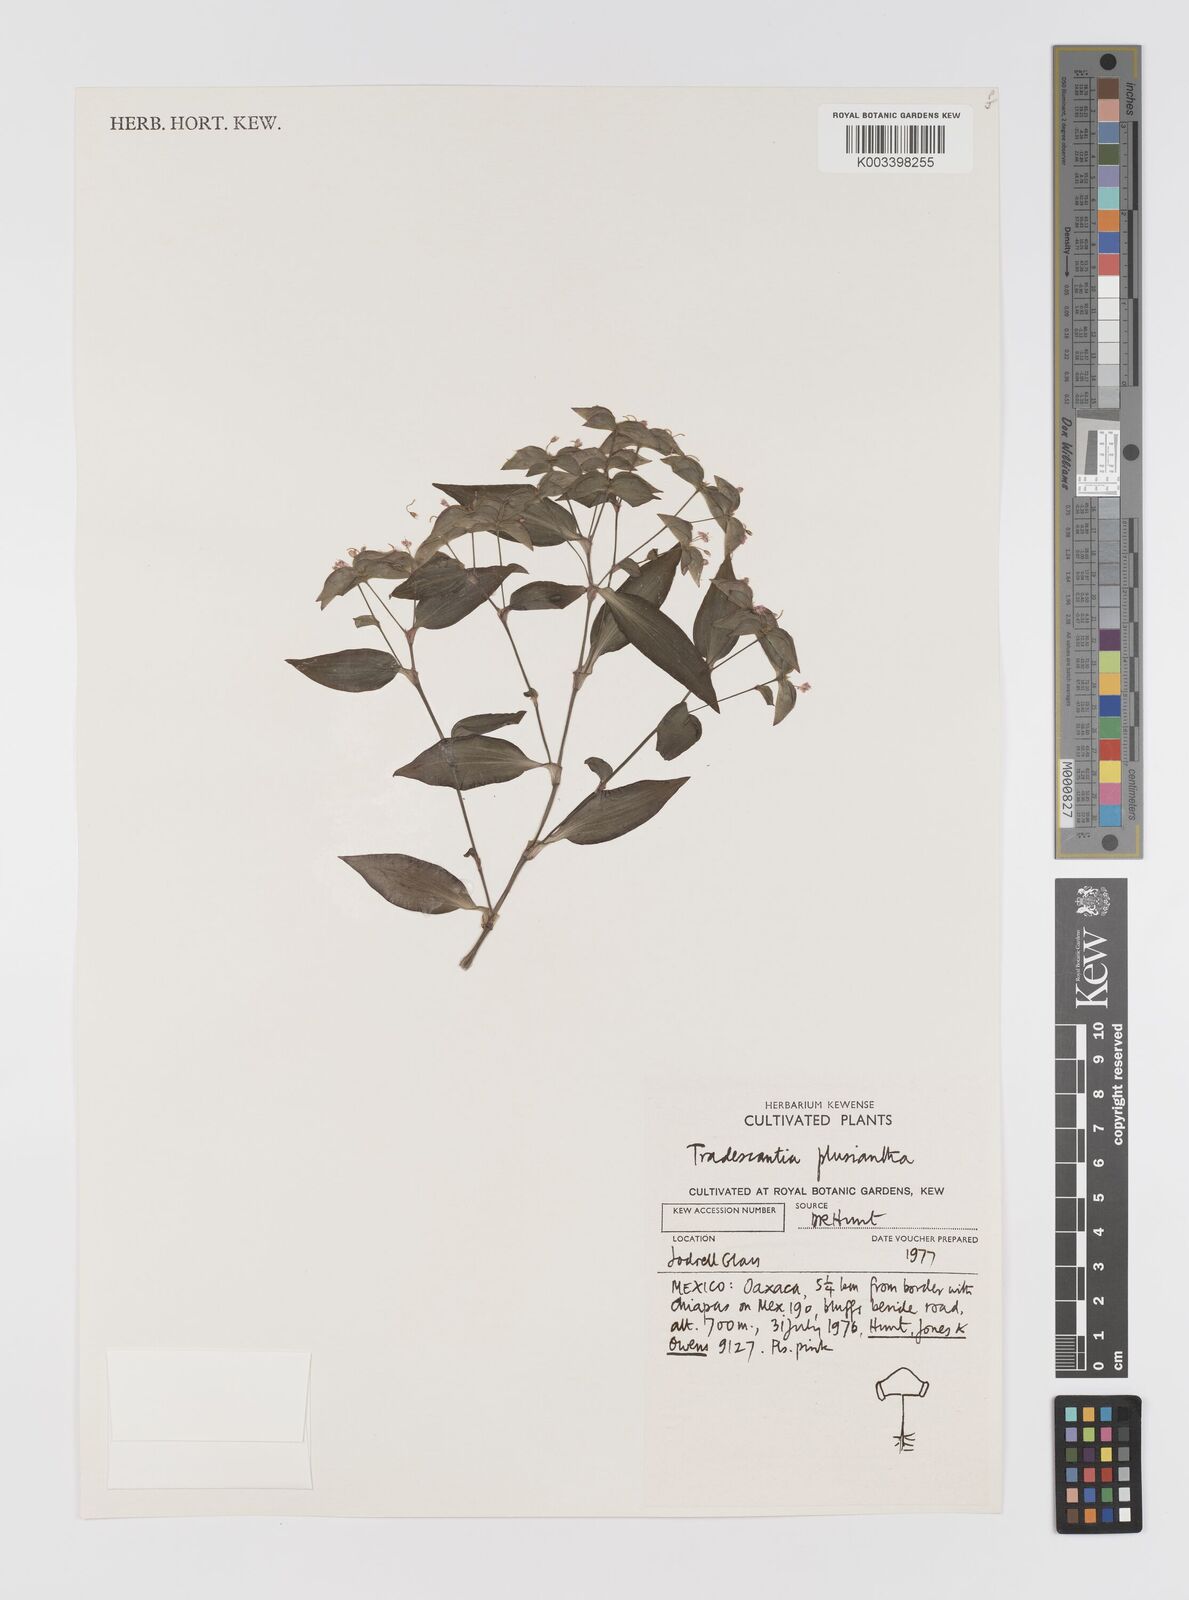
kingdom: Plantae
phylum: Tracheophyta
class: Liliopsida
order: Commelinales
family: Commelinaceae
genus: Tradescantia
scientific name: Tradescantia plusiantha
